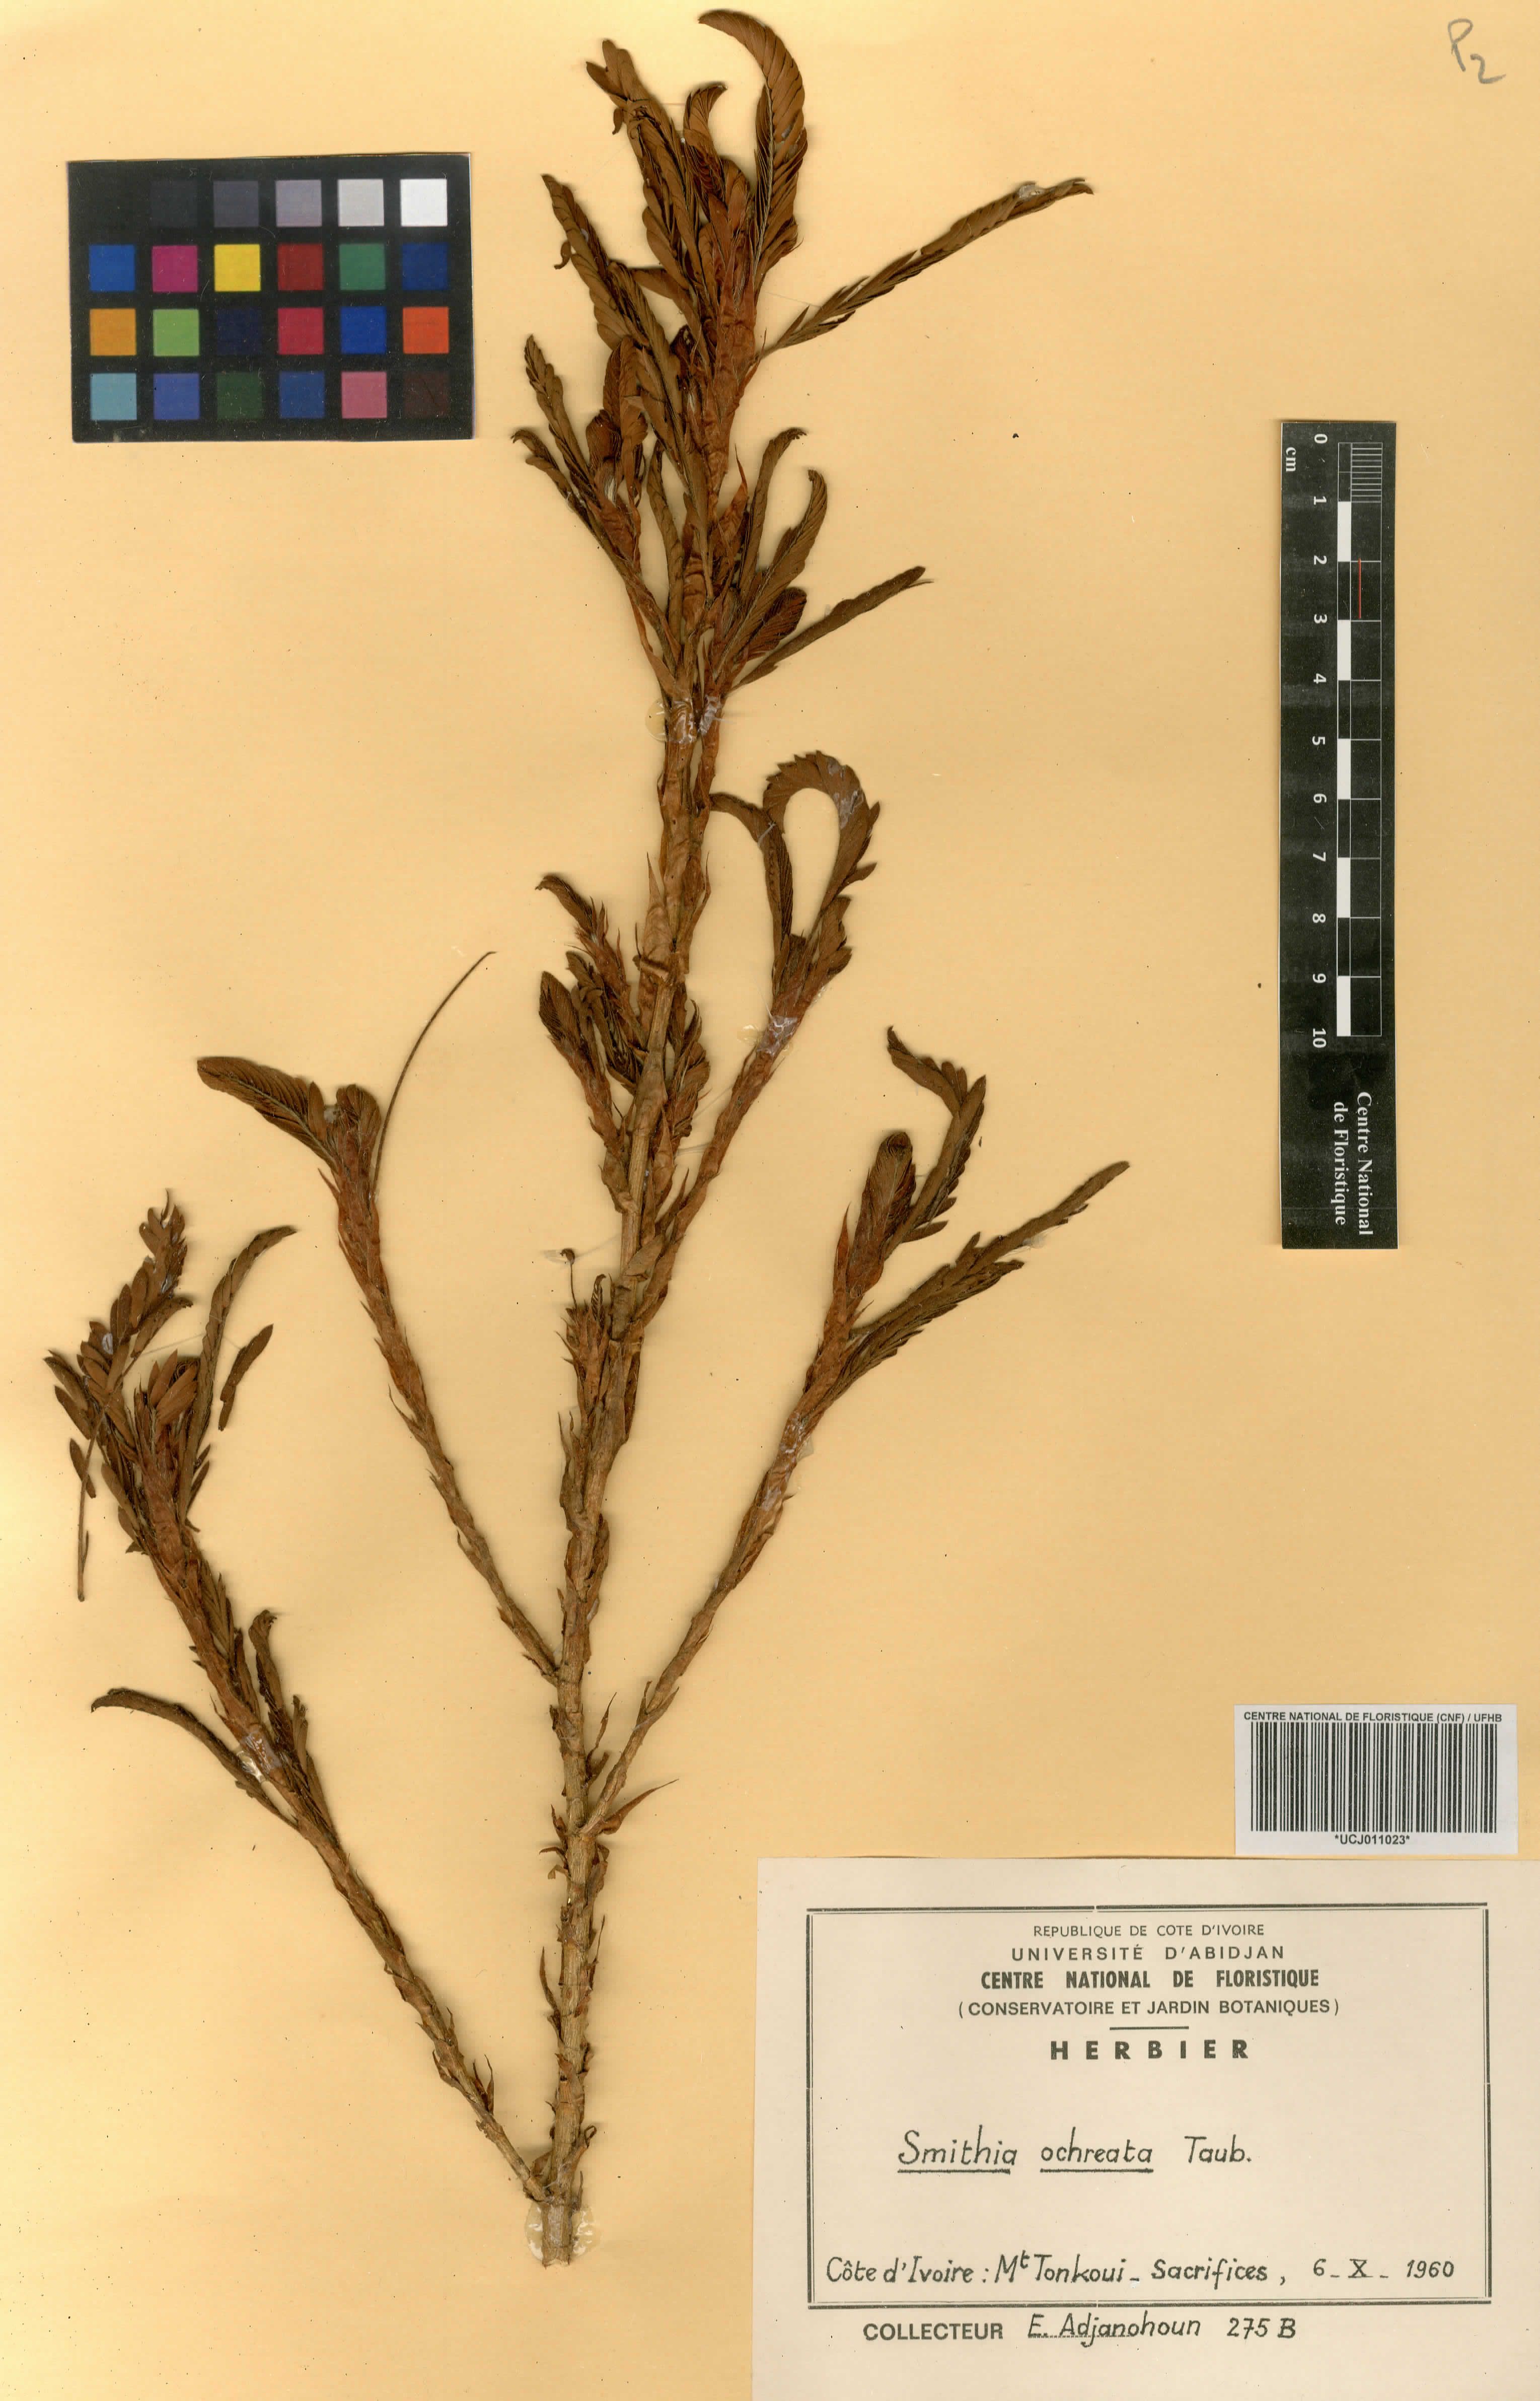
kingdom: Plantae
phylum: Tracheophyta
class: Magnoliopsida
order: Fabales
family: Fabaceae
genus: Kotschya
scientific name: Kotschya ochreata
